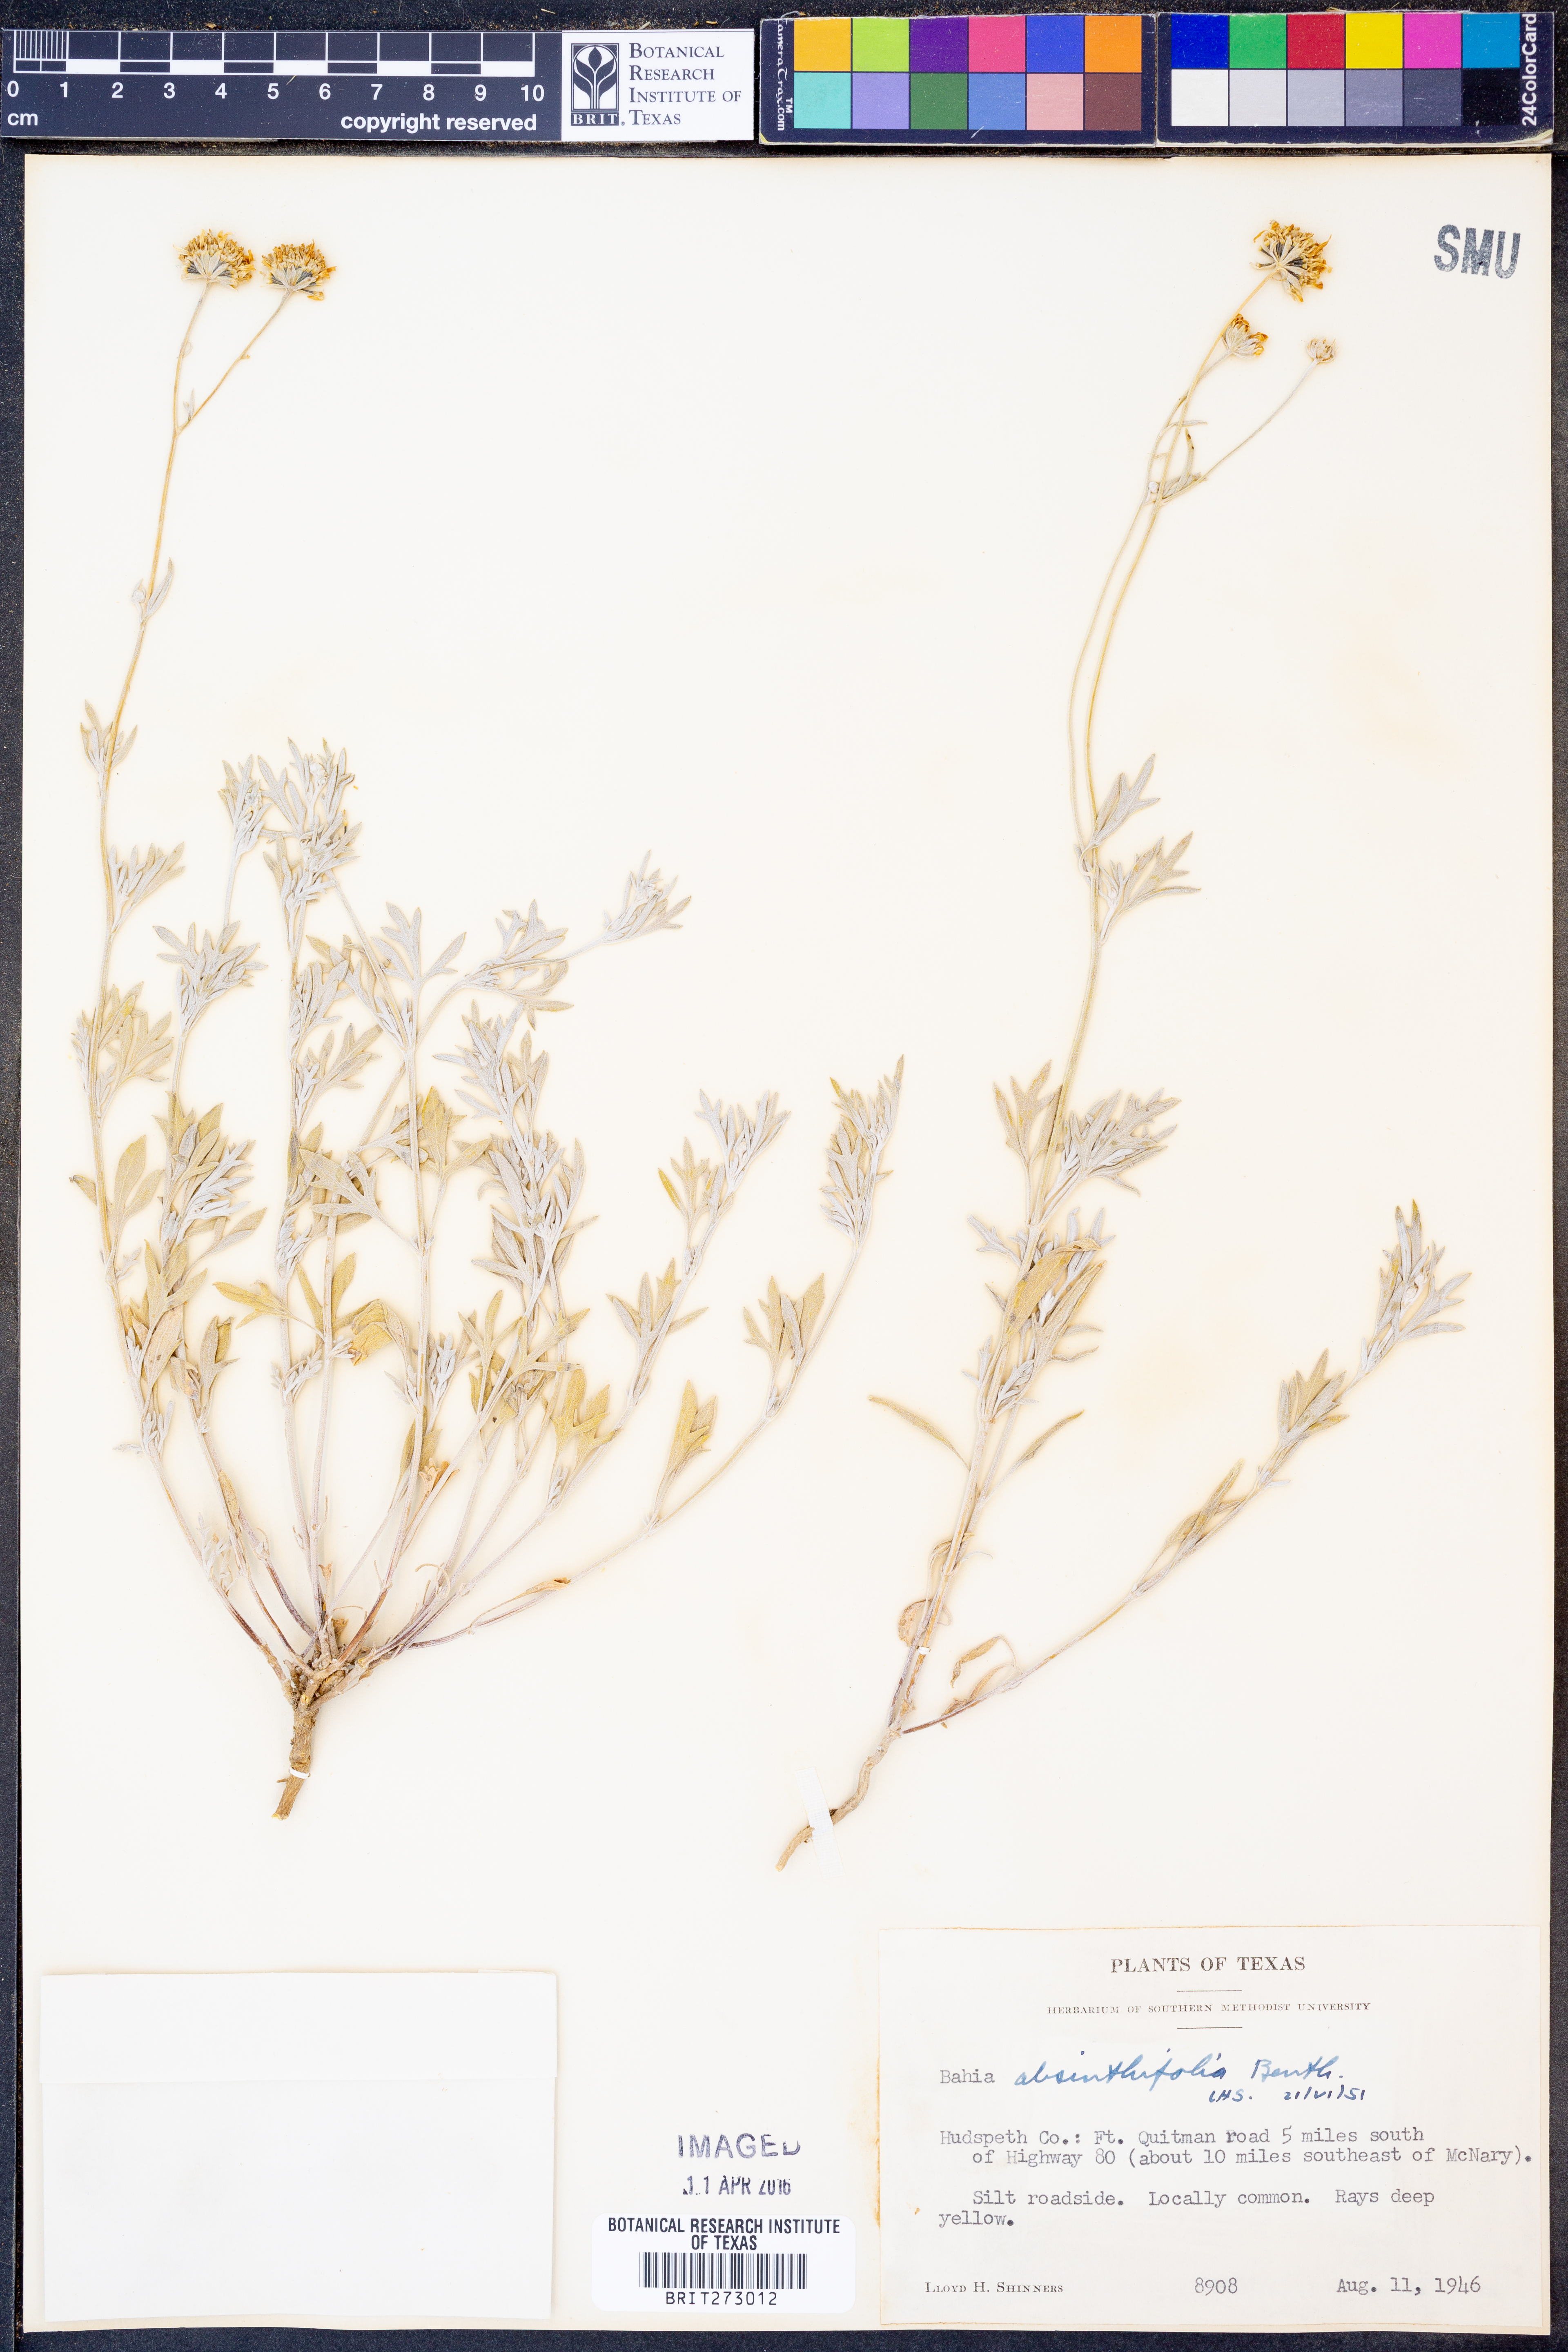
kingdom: Plantae
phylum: Tracheophyta
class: Magnoliopsida
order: Asterales
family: Asteraceae
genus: Picradeniopsis
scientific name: Picradeniopsis absinthifolia
